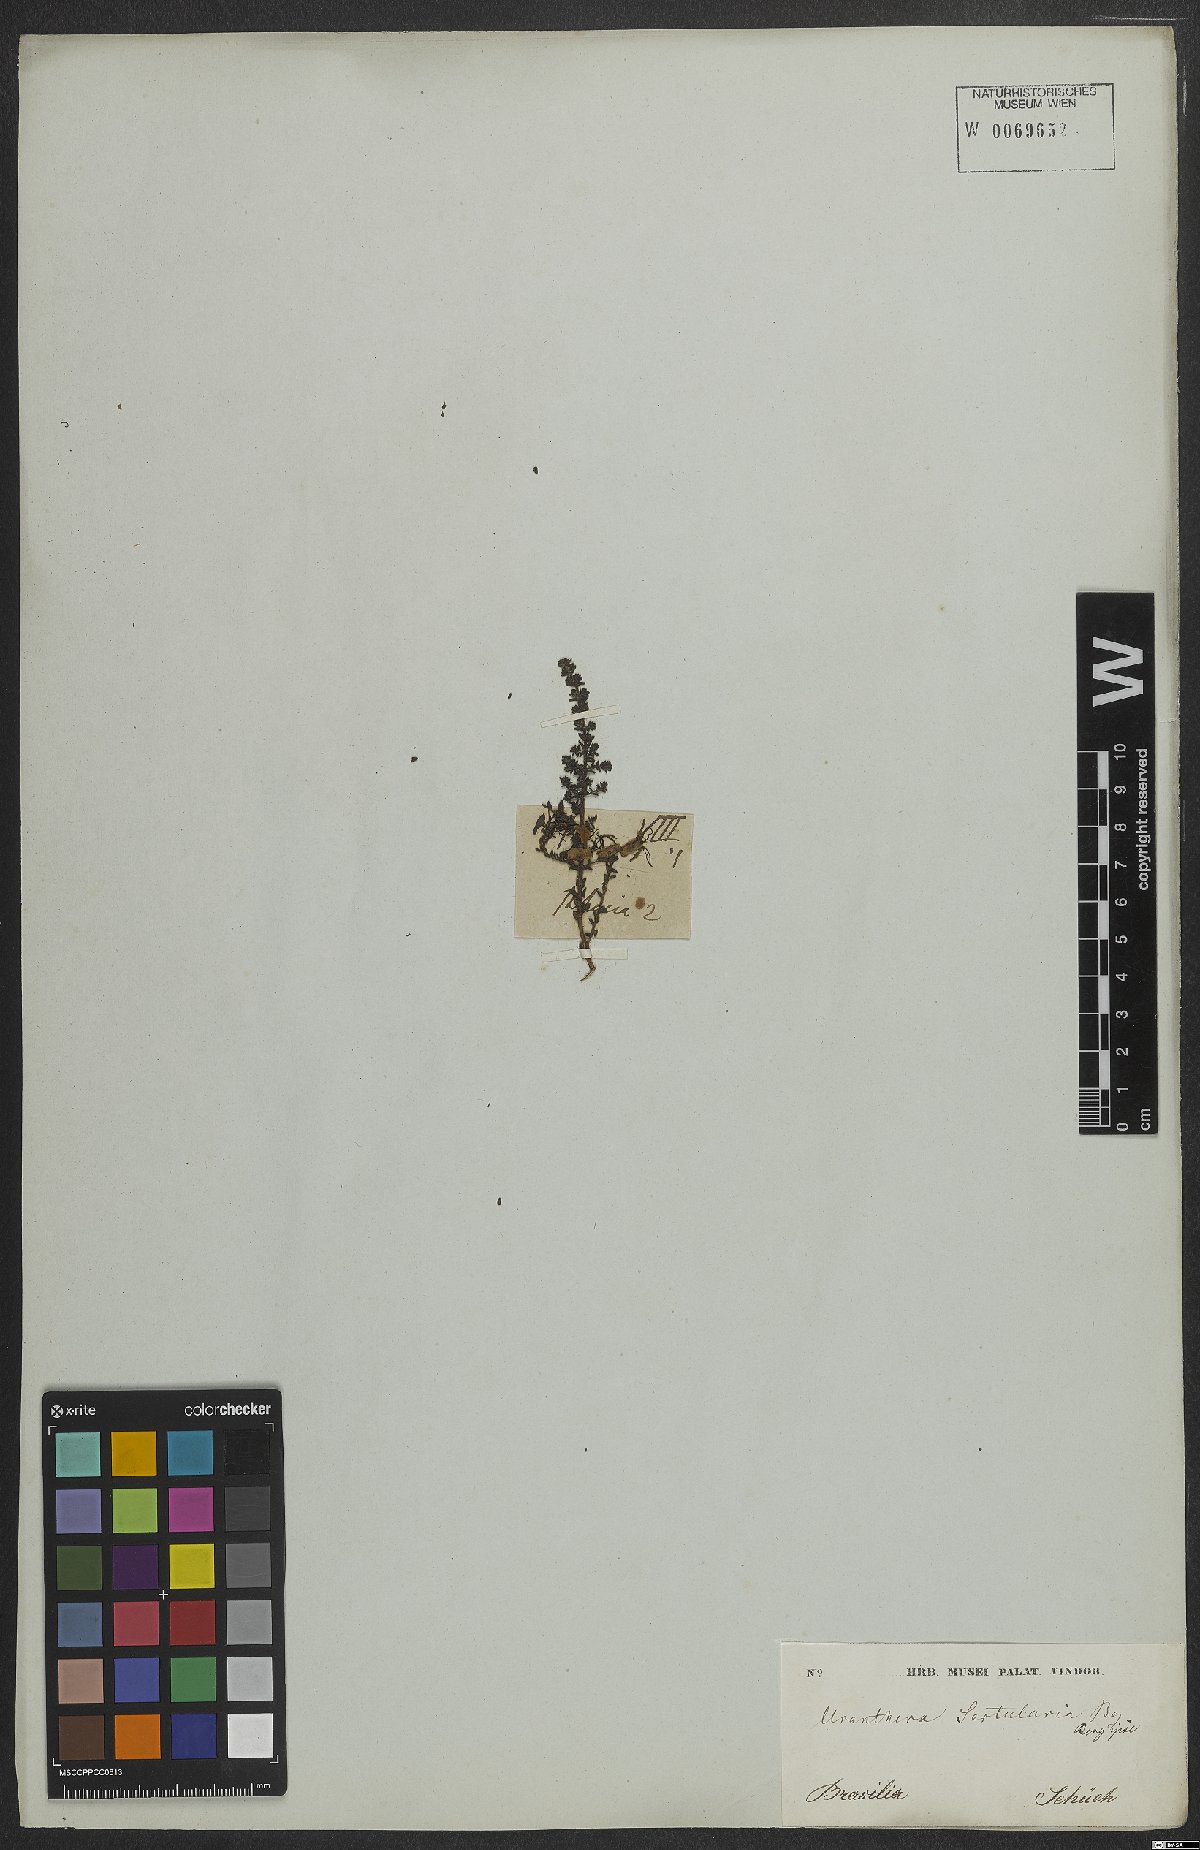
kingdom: Plantae
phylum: Tracheophyta
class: Magnoliopsida
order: Myrtales
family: Melastomataceae
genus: Fritzschia
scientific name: Fritzschia sertularia
